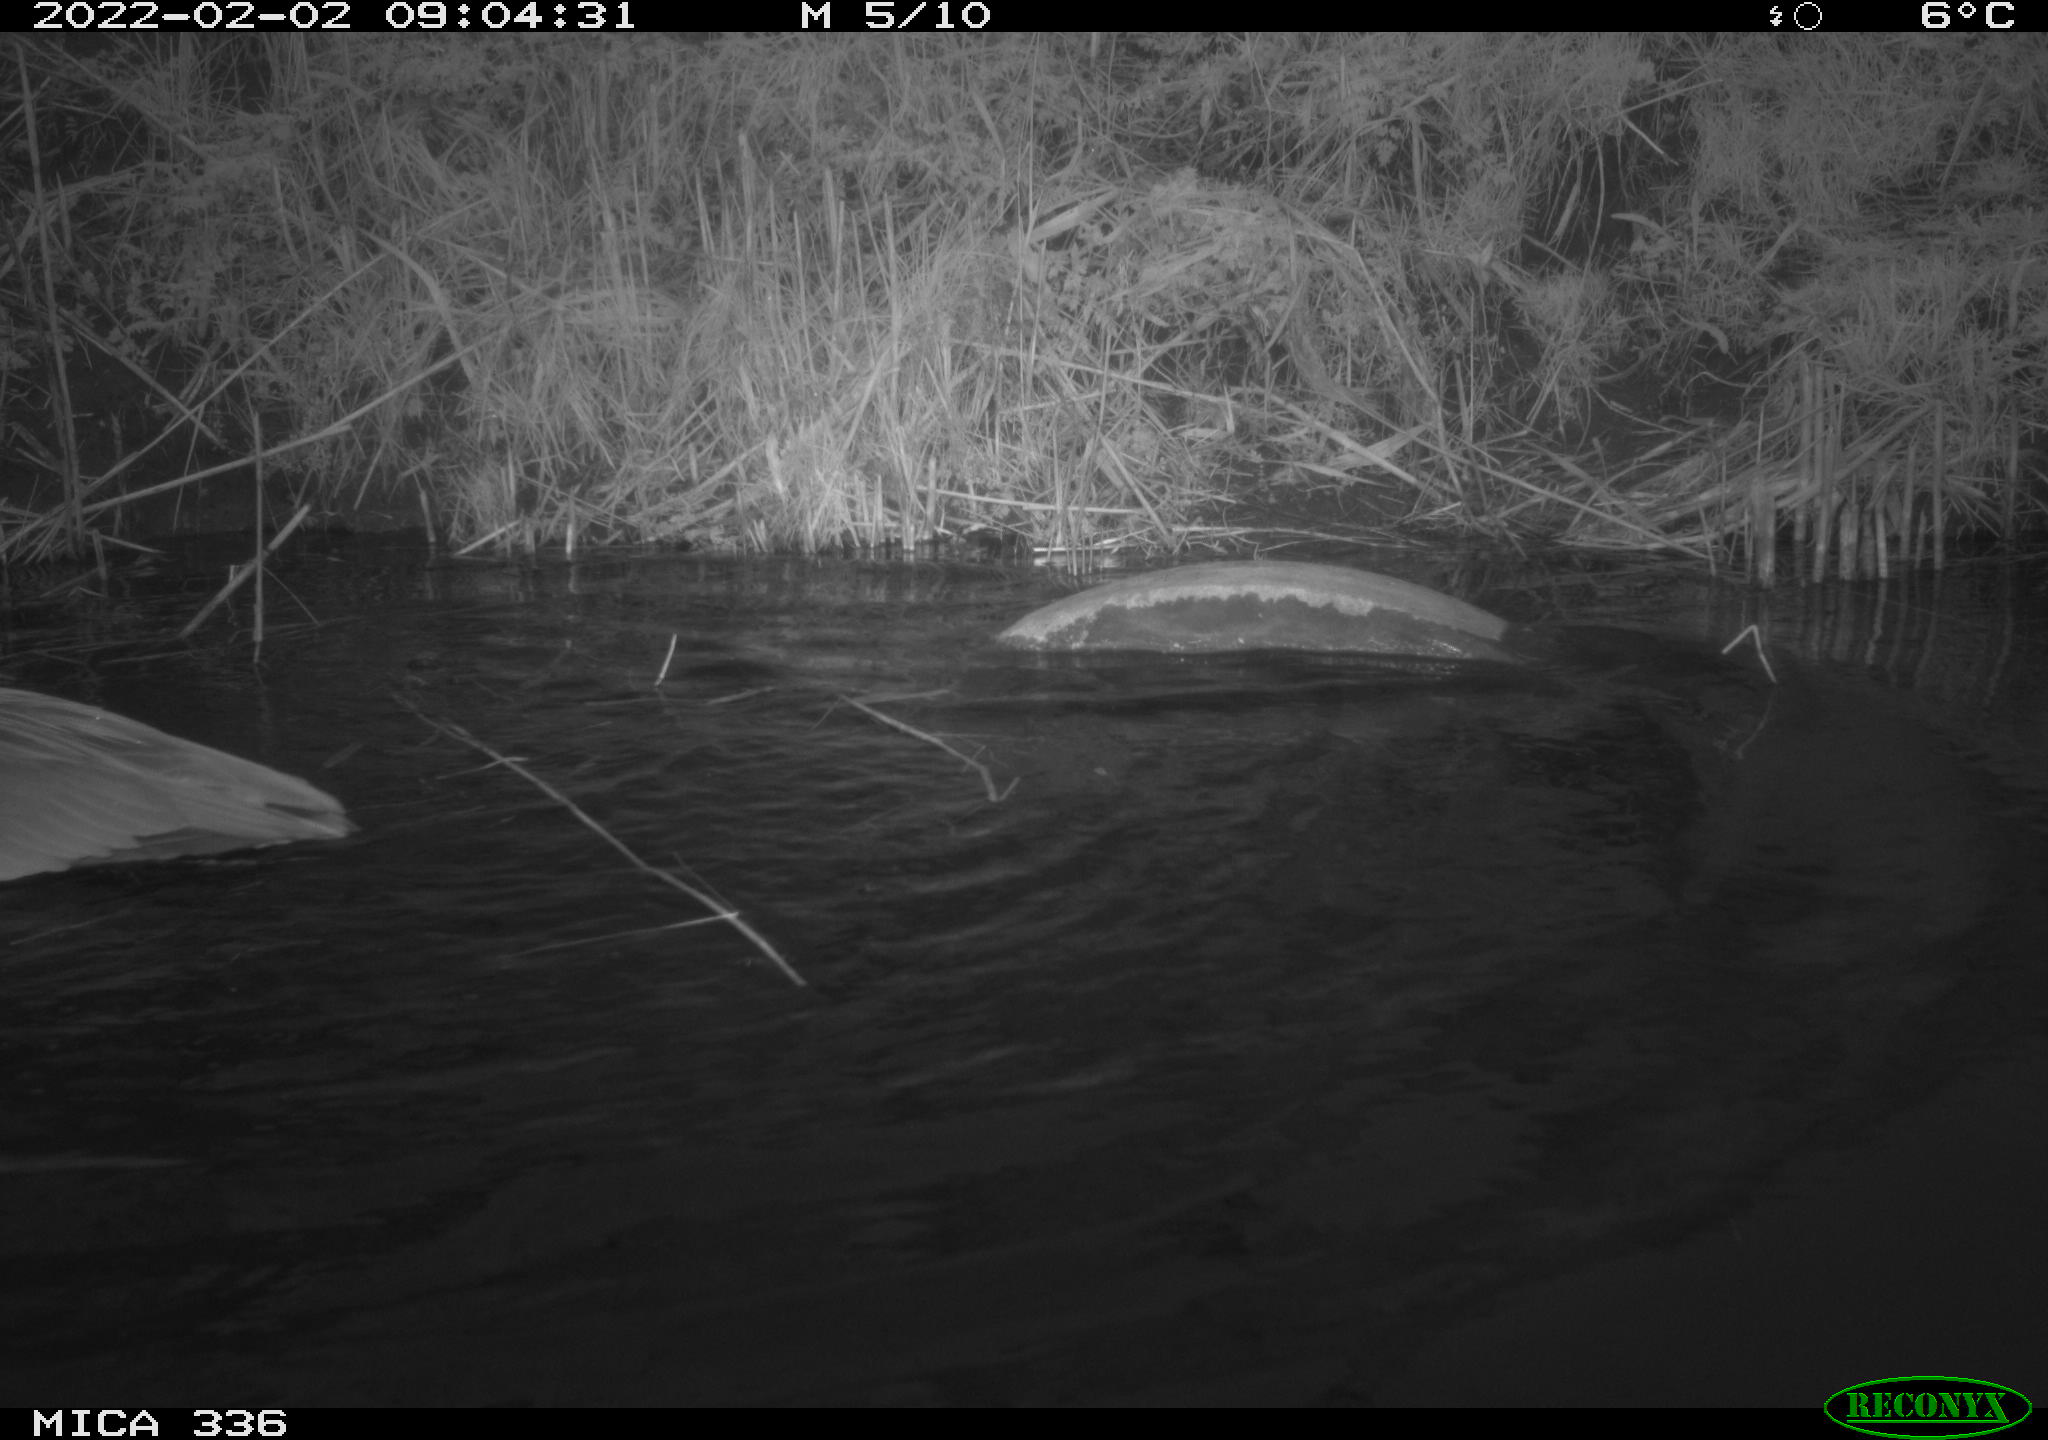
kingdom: Animalia
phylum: Chordata
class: Aves
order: Pelecaniformes
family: Ardeidae
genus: Ardea
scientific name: Ardea cinerea
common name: Grey heron
